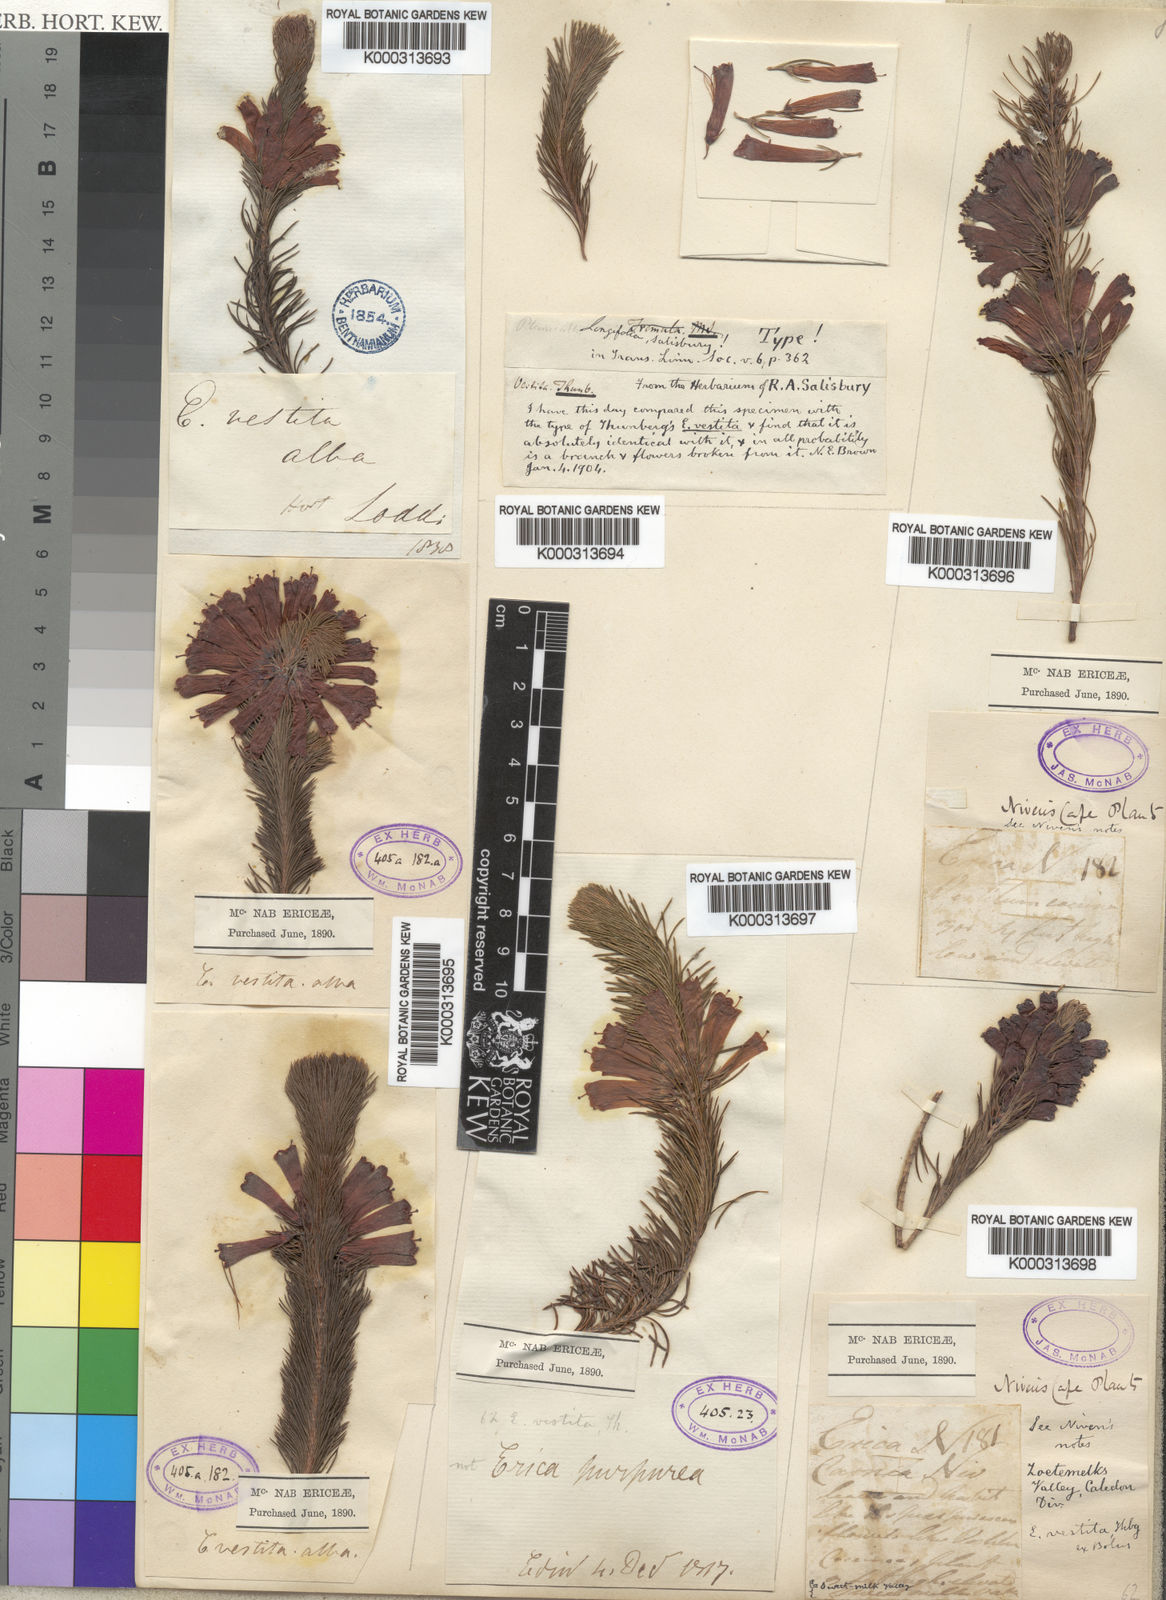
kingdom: Plantae
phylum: Tracheophyta
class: Magnoliopsida
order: Ericales
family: Ericaceae
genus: Erica
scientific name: Erica vestita
